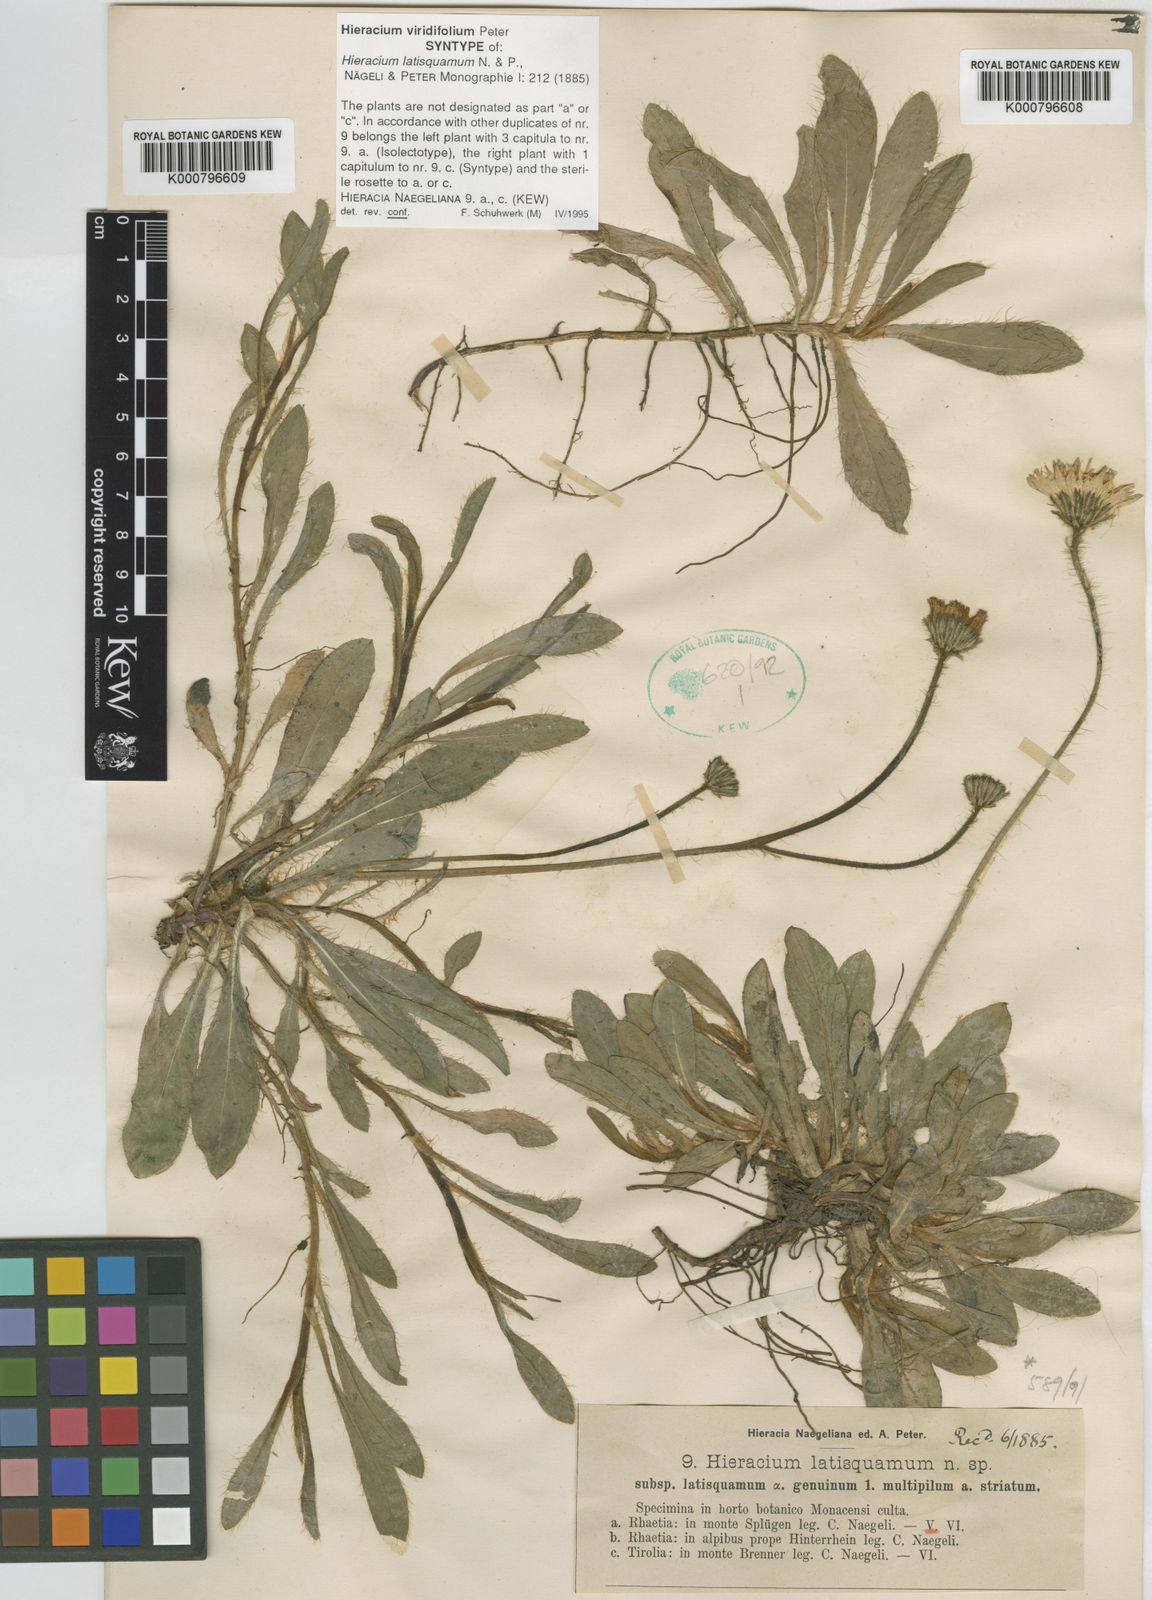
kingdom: Plantae
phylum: Tracheophyta
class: Magnoliopsida
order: Asterales
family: Asteraceae
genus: Pilosella
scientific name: Pilosella viridifolia
